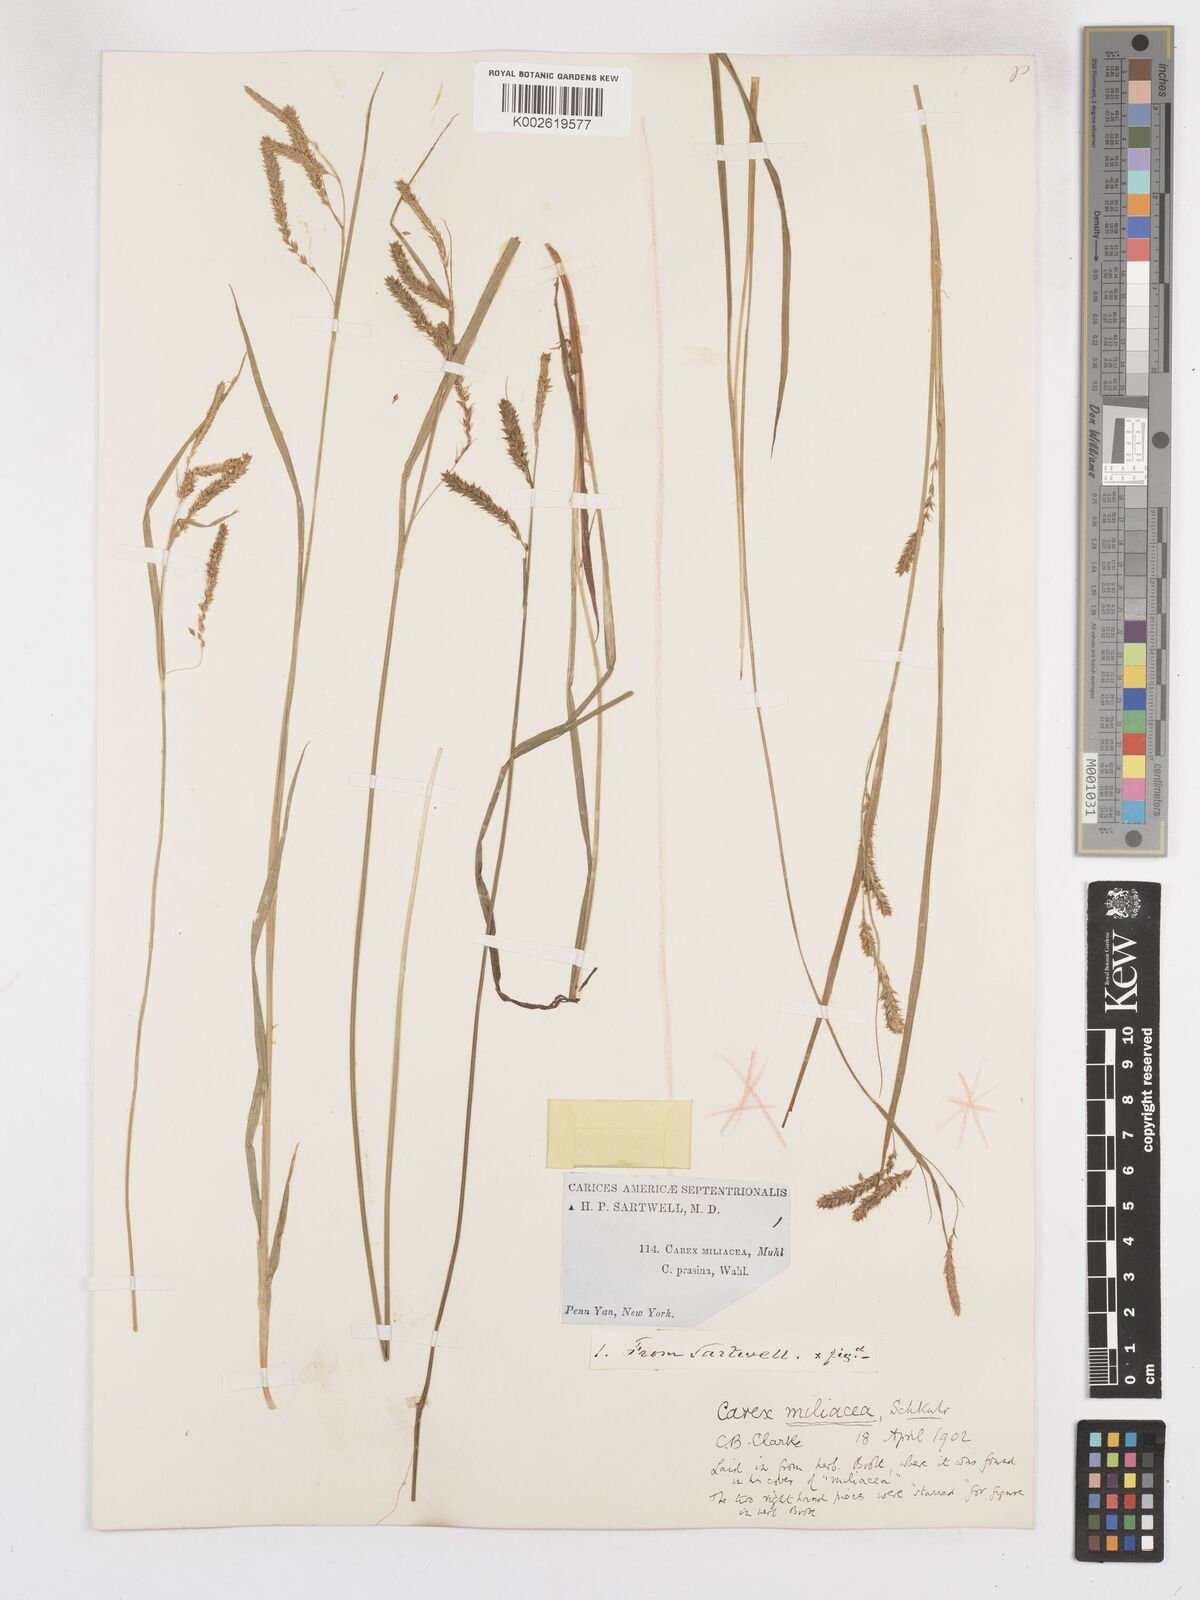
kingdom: Plantae
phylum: Tracheophyta
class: Liliopsida
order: Poales
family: Cyperaceae
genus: Carex
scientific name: Carex prasina
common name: Drooping sedge
